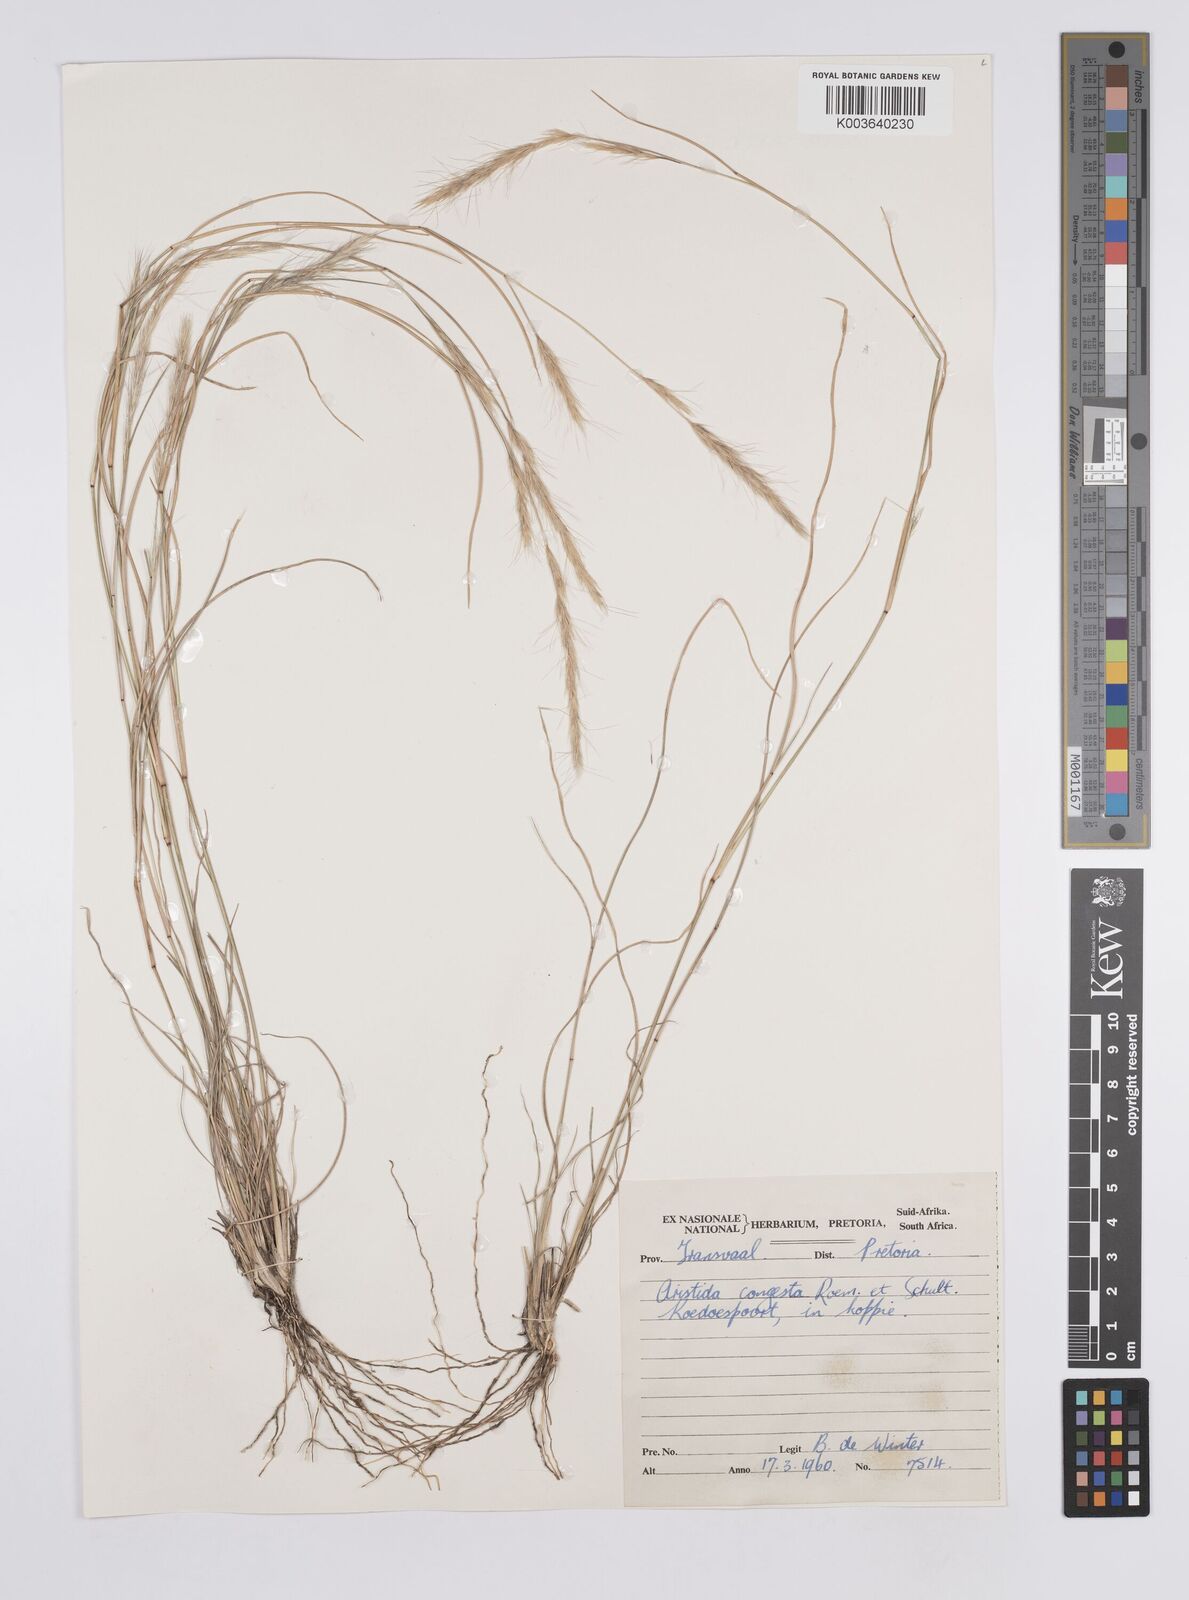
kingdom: Plantae
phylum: Tracheophyta
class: Liliopsida
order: Poales
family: Poaceae
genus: Aristida
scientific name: Aristida congesta
